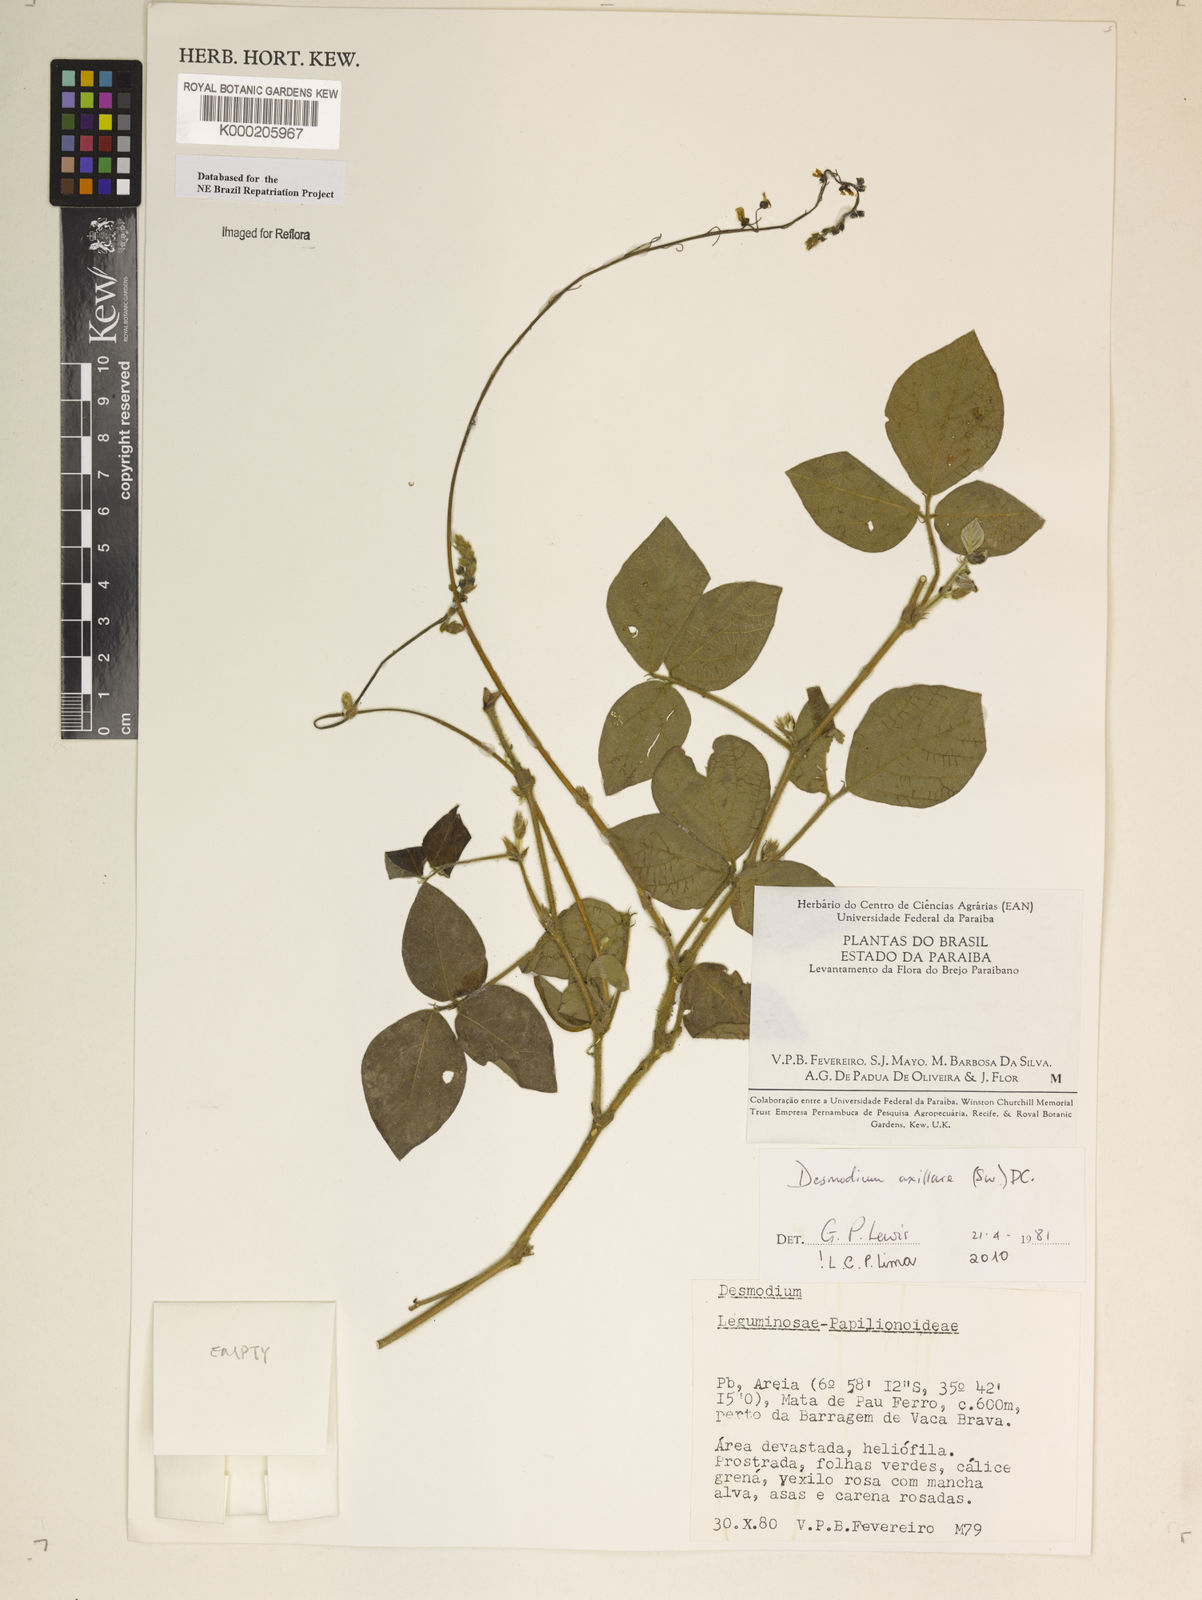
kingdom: Plantae
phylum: Tracheophyta
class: Magnoliopsida
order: Fabales
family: Fabaceae
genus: Desmodium
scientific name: Desmodium axillare
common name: Wire with
